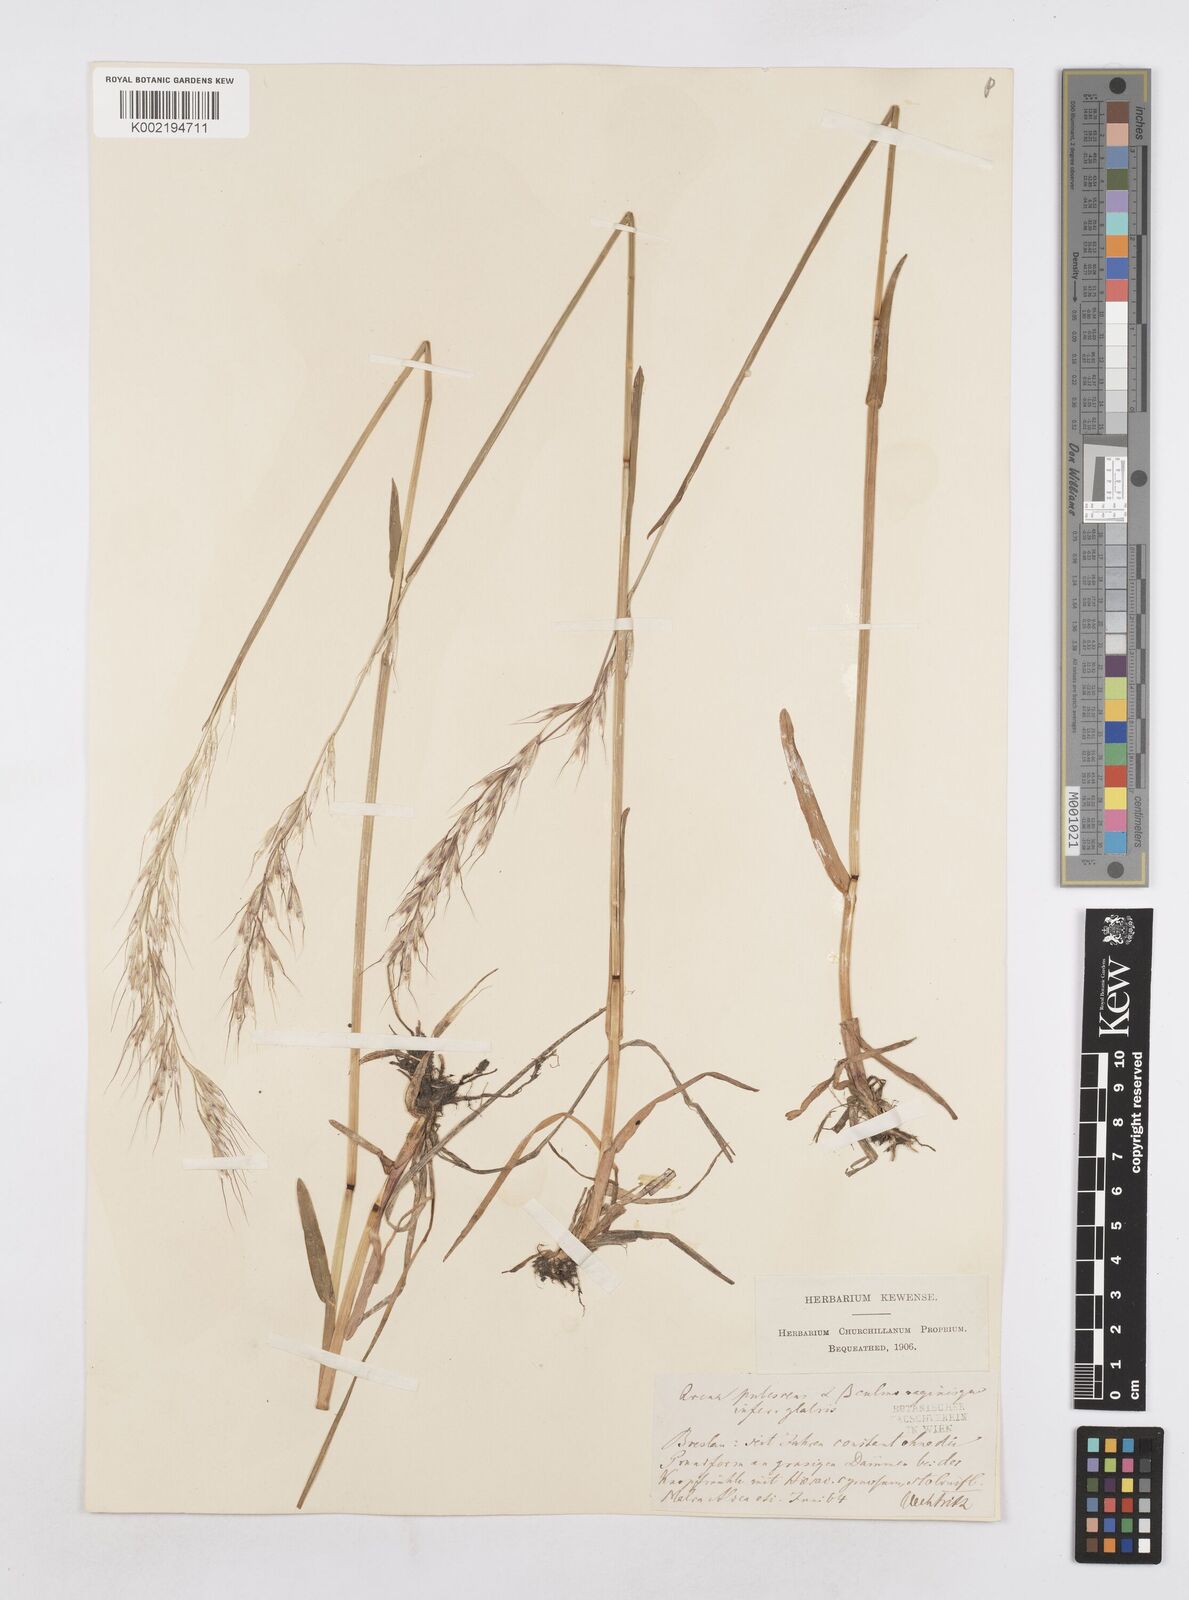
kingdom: Plantae
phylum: Tracheophyta
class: Liliopsida
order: Poales
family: Poaceae
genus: Avenula
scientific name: Avenula pubescens
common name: Downy alpine oatgrass
